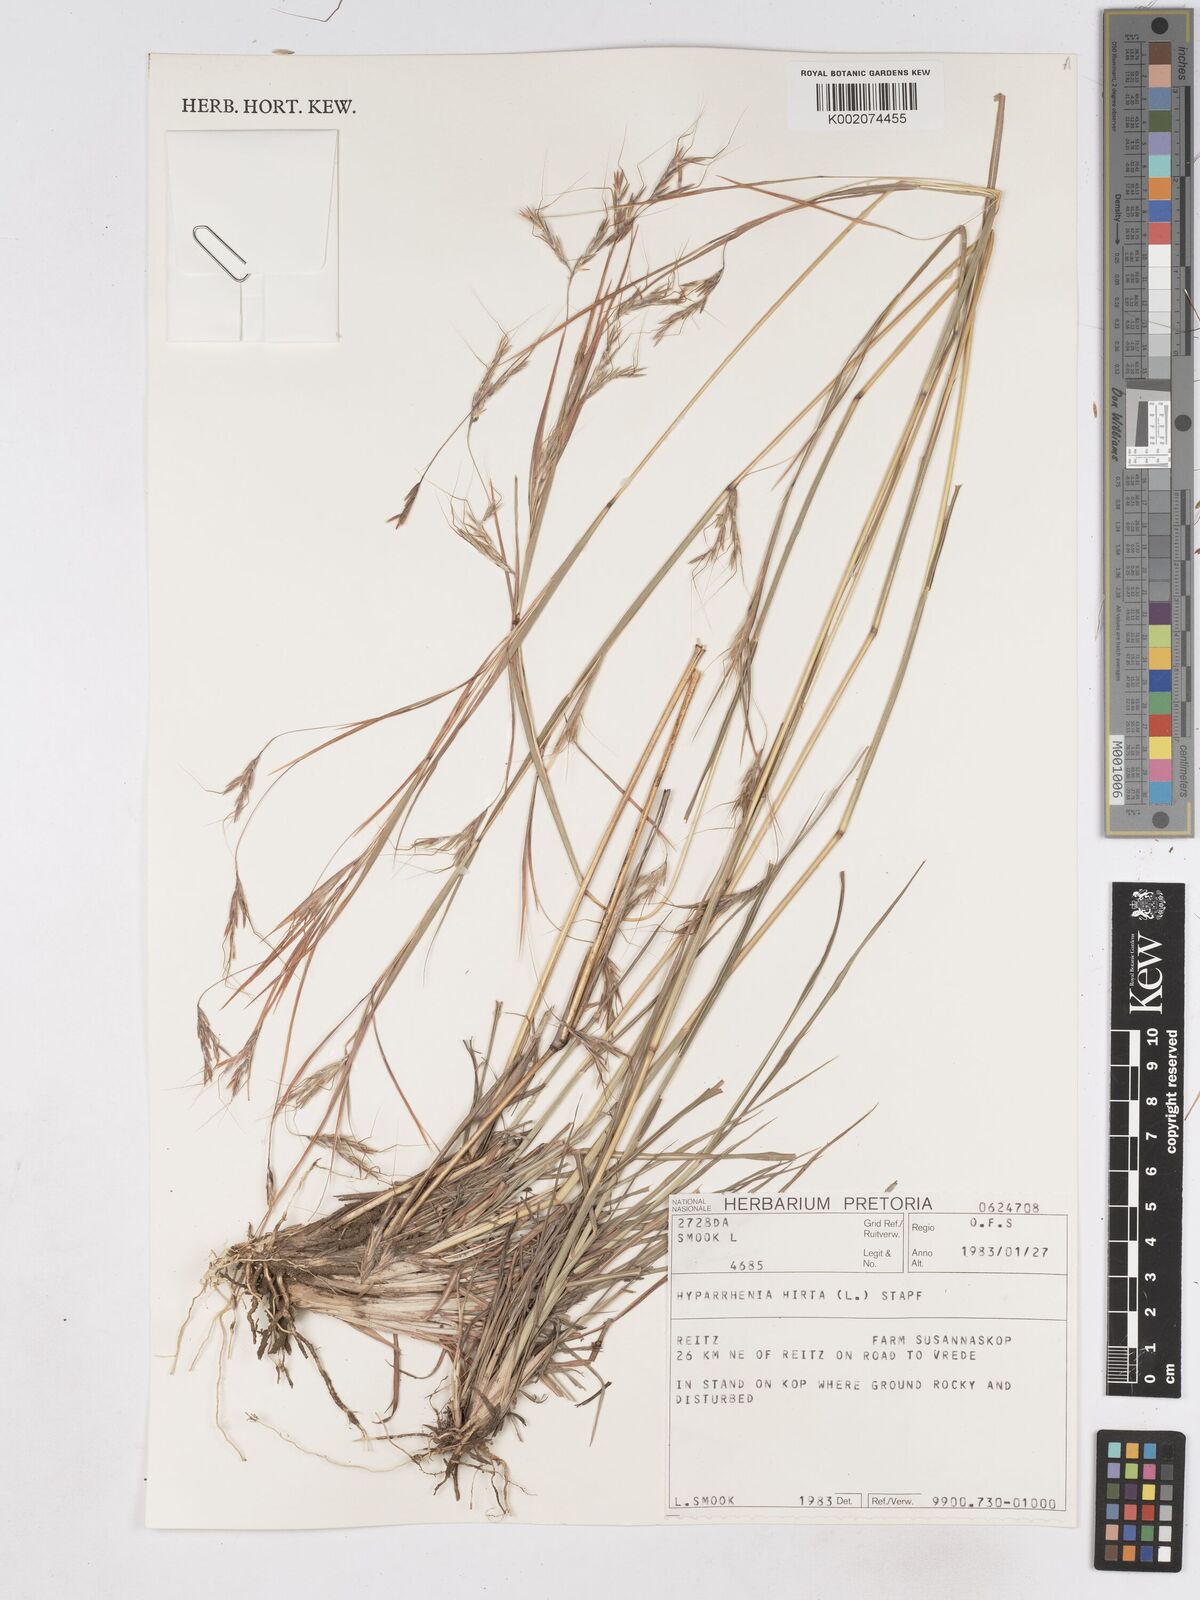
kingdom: Plantae
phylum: Tracheophyta
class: Liliopsida
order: Poales
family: Poaceae
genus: Hyparrhenia
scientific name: Hyparrhenia hirta
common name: Thatching grass
